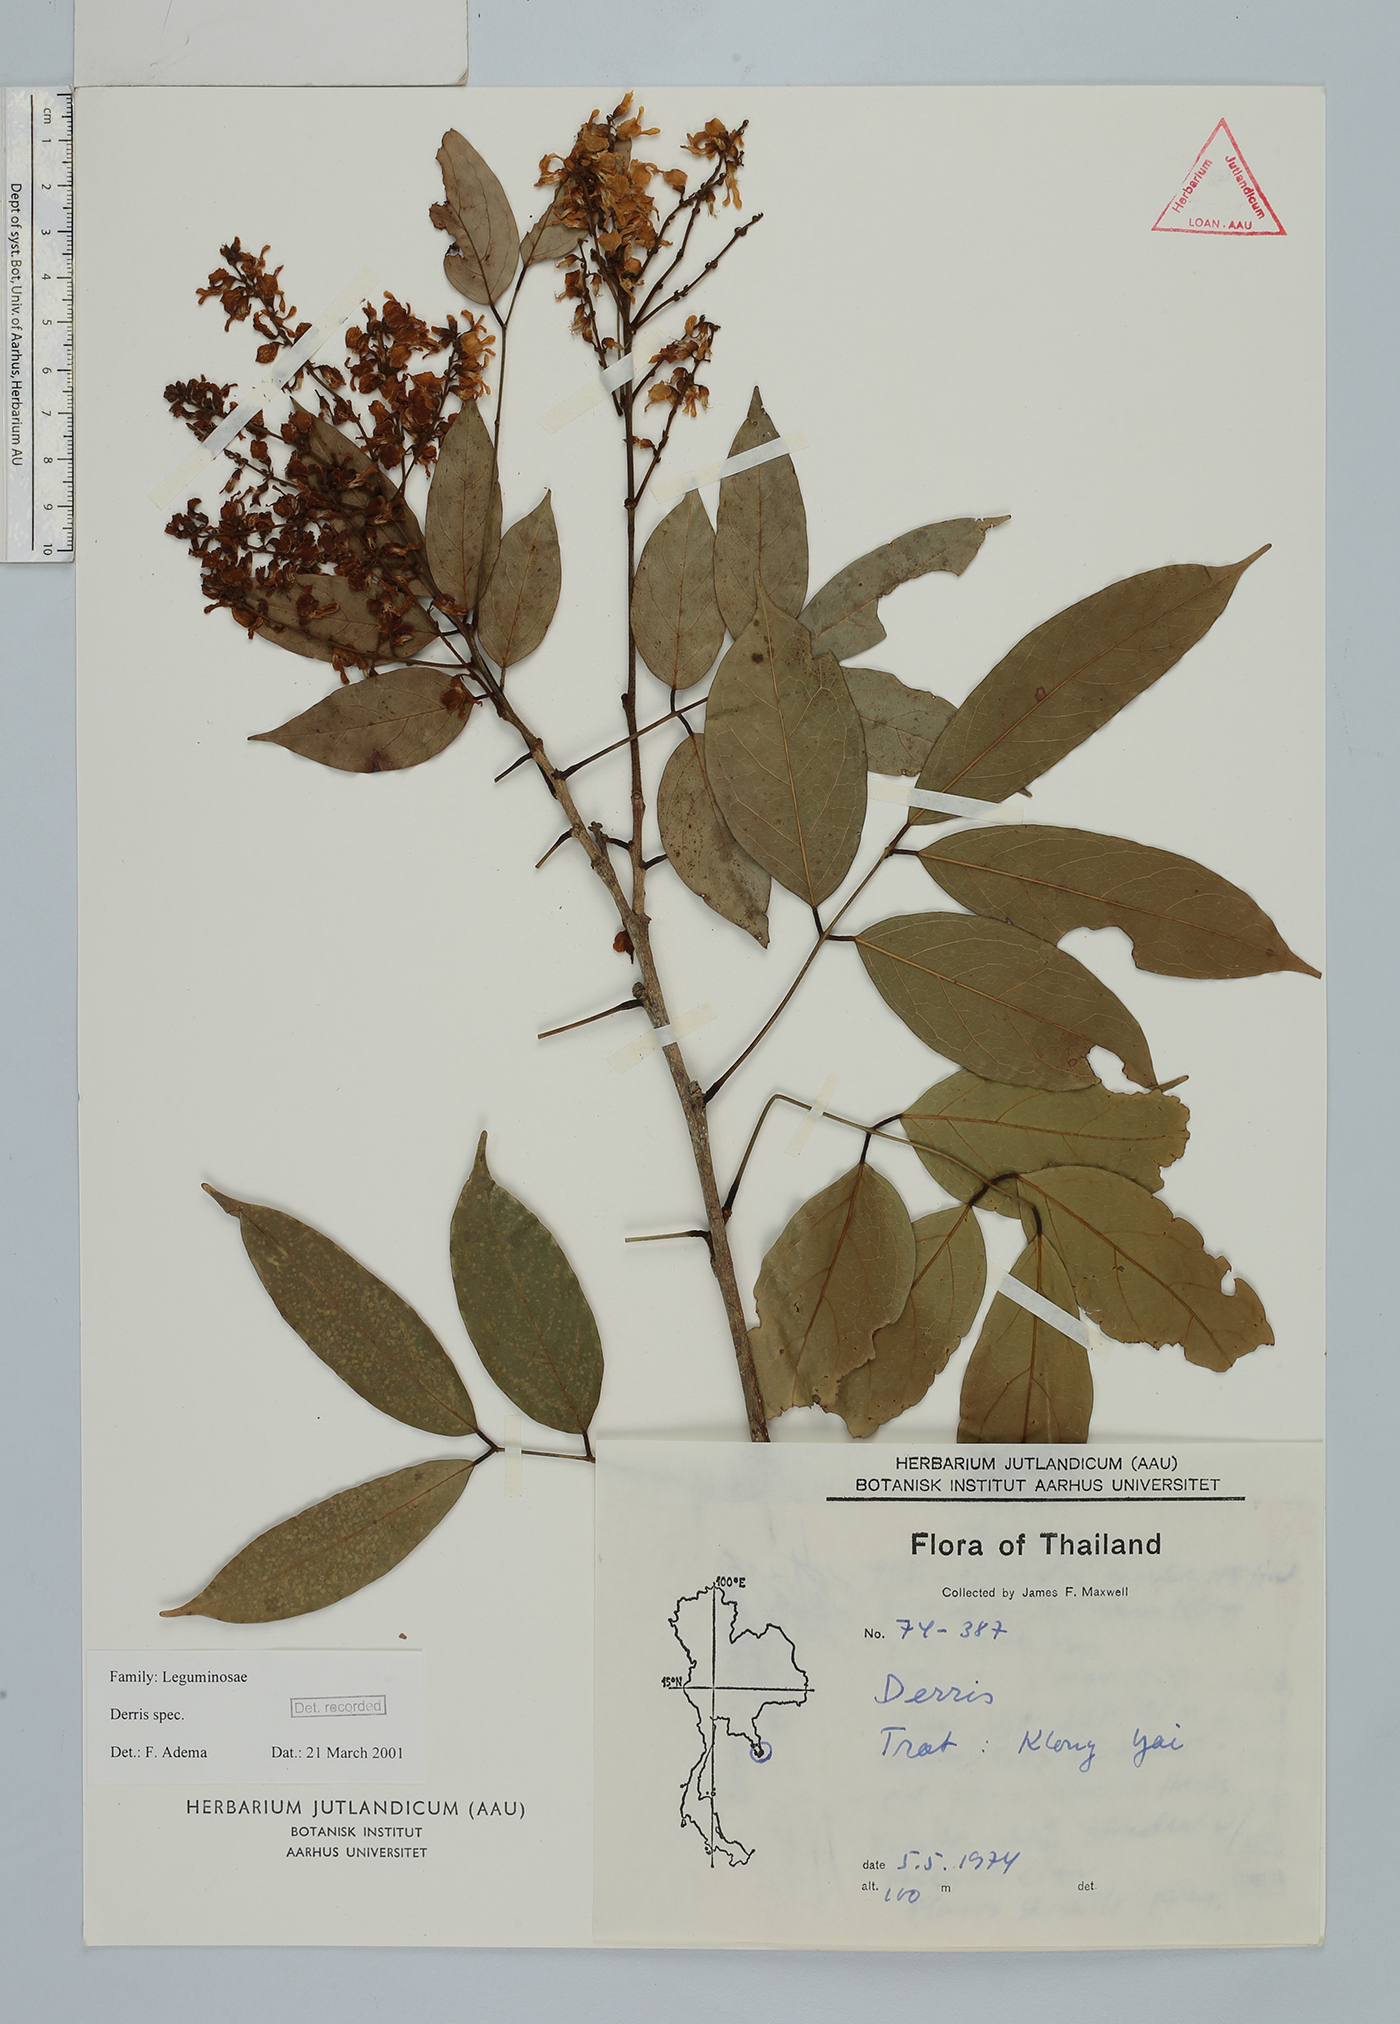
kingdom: Plantae
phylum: Tracheophyta
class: Magnoliopsida
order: Fabales
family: Fabaceae
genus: Derris
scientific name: Derris
